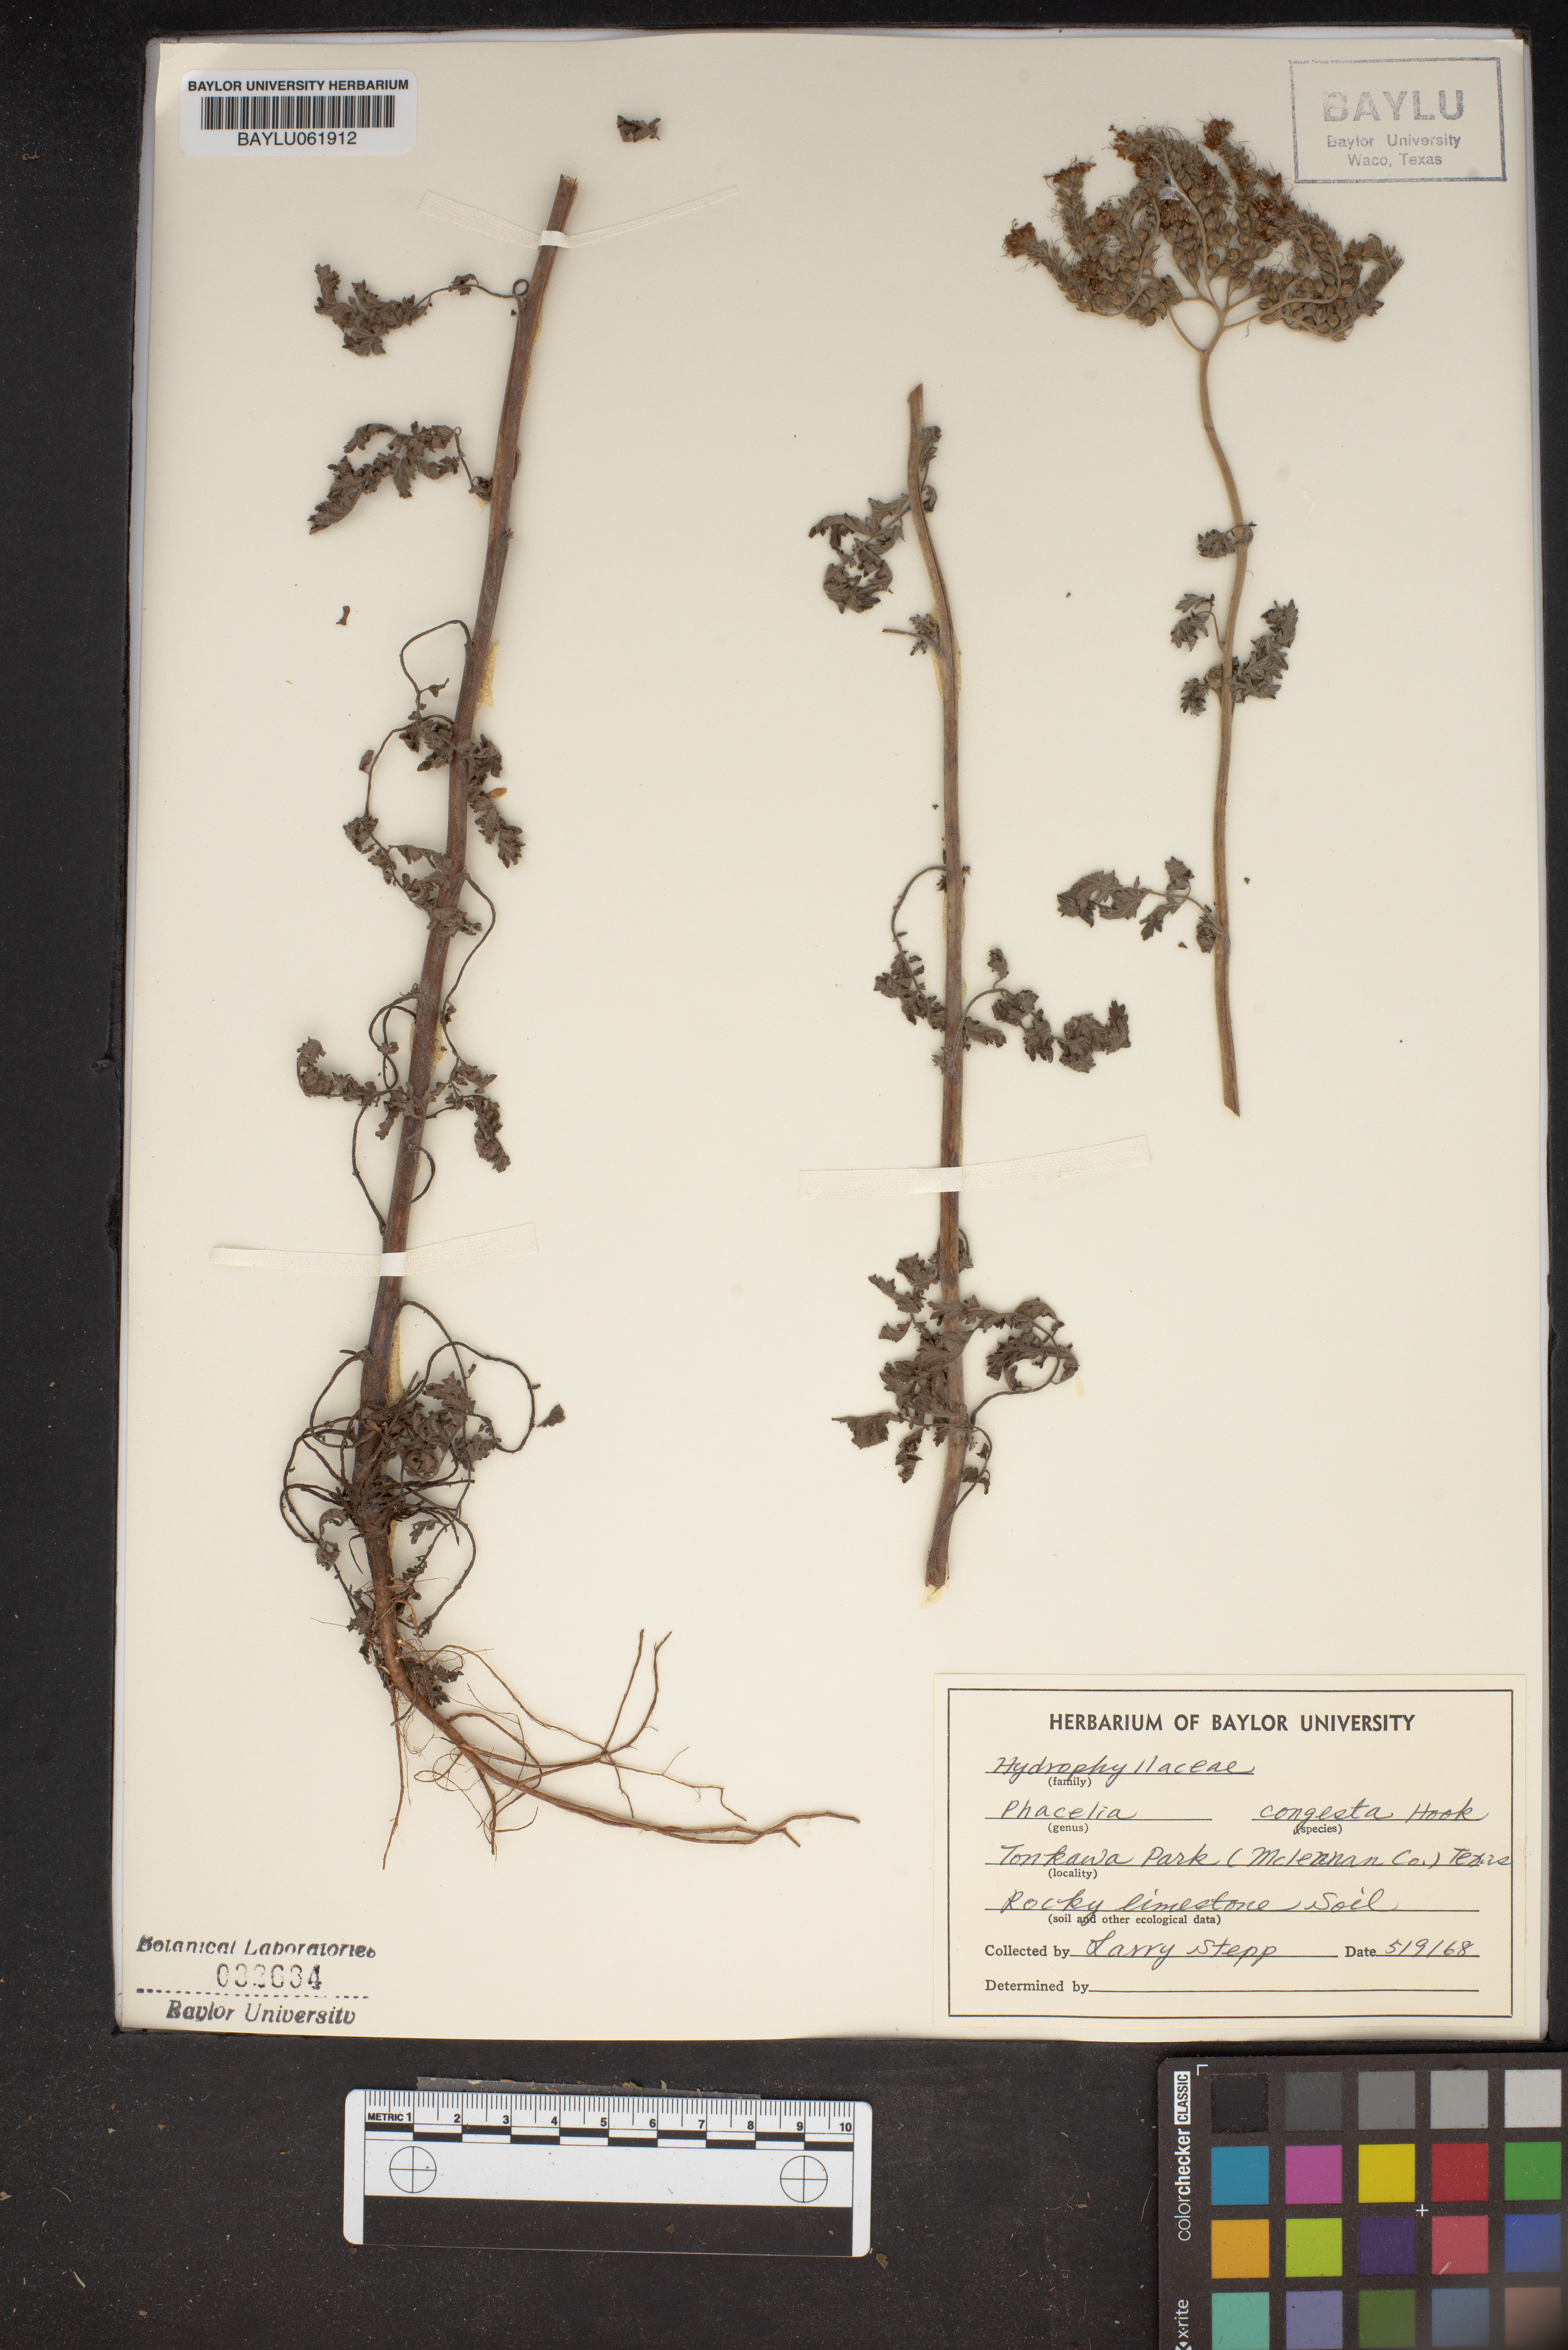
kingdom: Plantae
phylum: Tracheophyta
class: Magnoliopsida
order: Boraginales
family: Hydrophyllaceae
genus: Phacelia
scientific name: Phacelia congesta
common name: Blue curls
